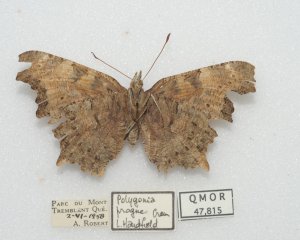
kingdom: Animalia
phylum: Arthropoda
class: Insecta
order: Lepidoptera
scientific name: Lepidoptera
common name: Butterflies
